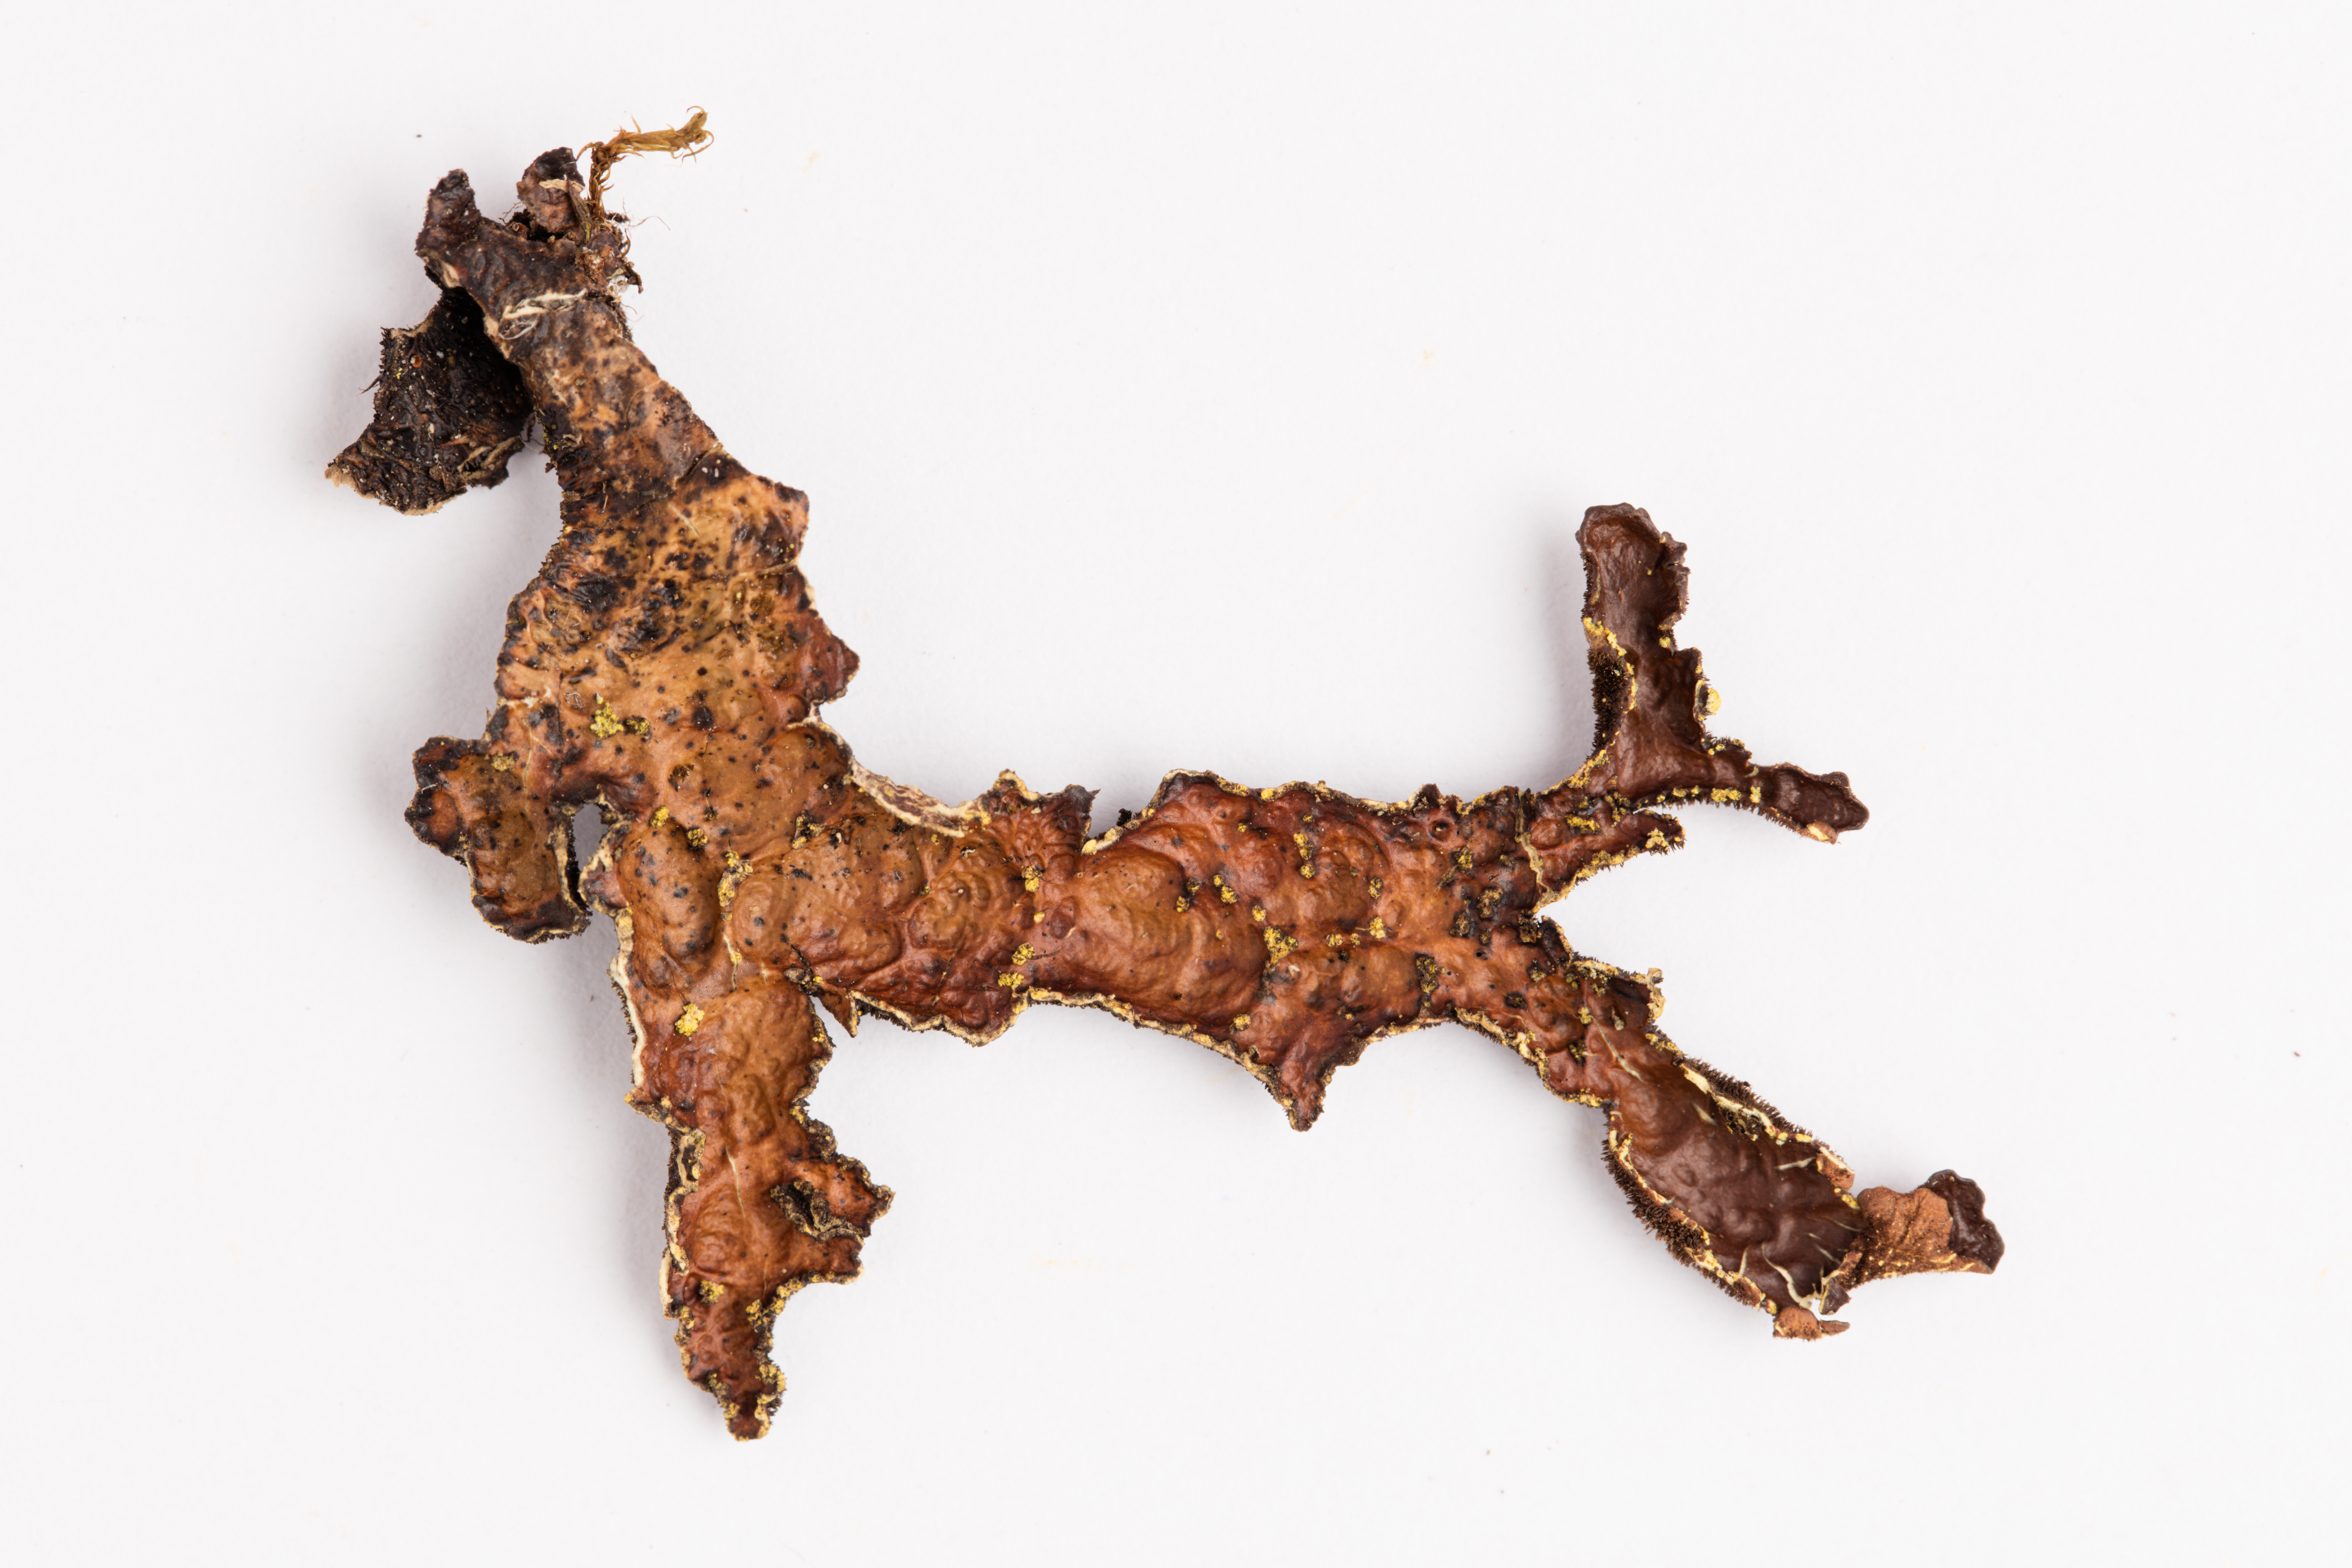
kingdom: Fungi
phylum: Ascomycota
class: Lecanoromycetes
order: Peltigerales
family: Lobariaceae
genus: Pseudocyphellaria
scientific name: Pseudocyphellaria crocata
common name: Golden specklebelly
